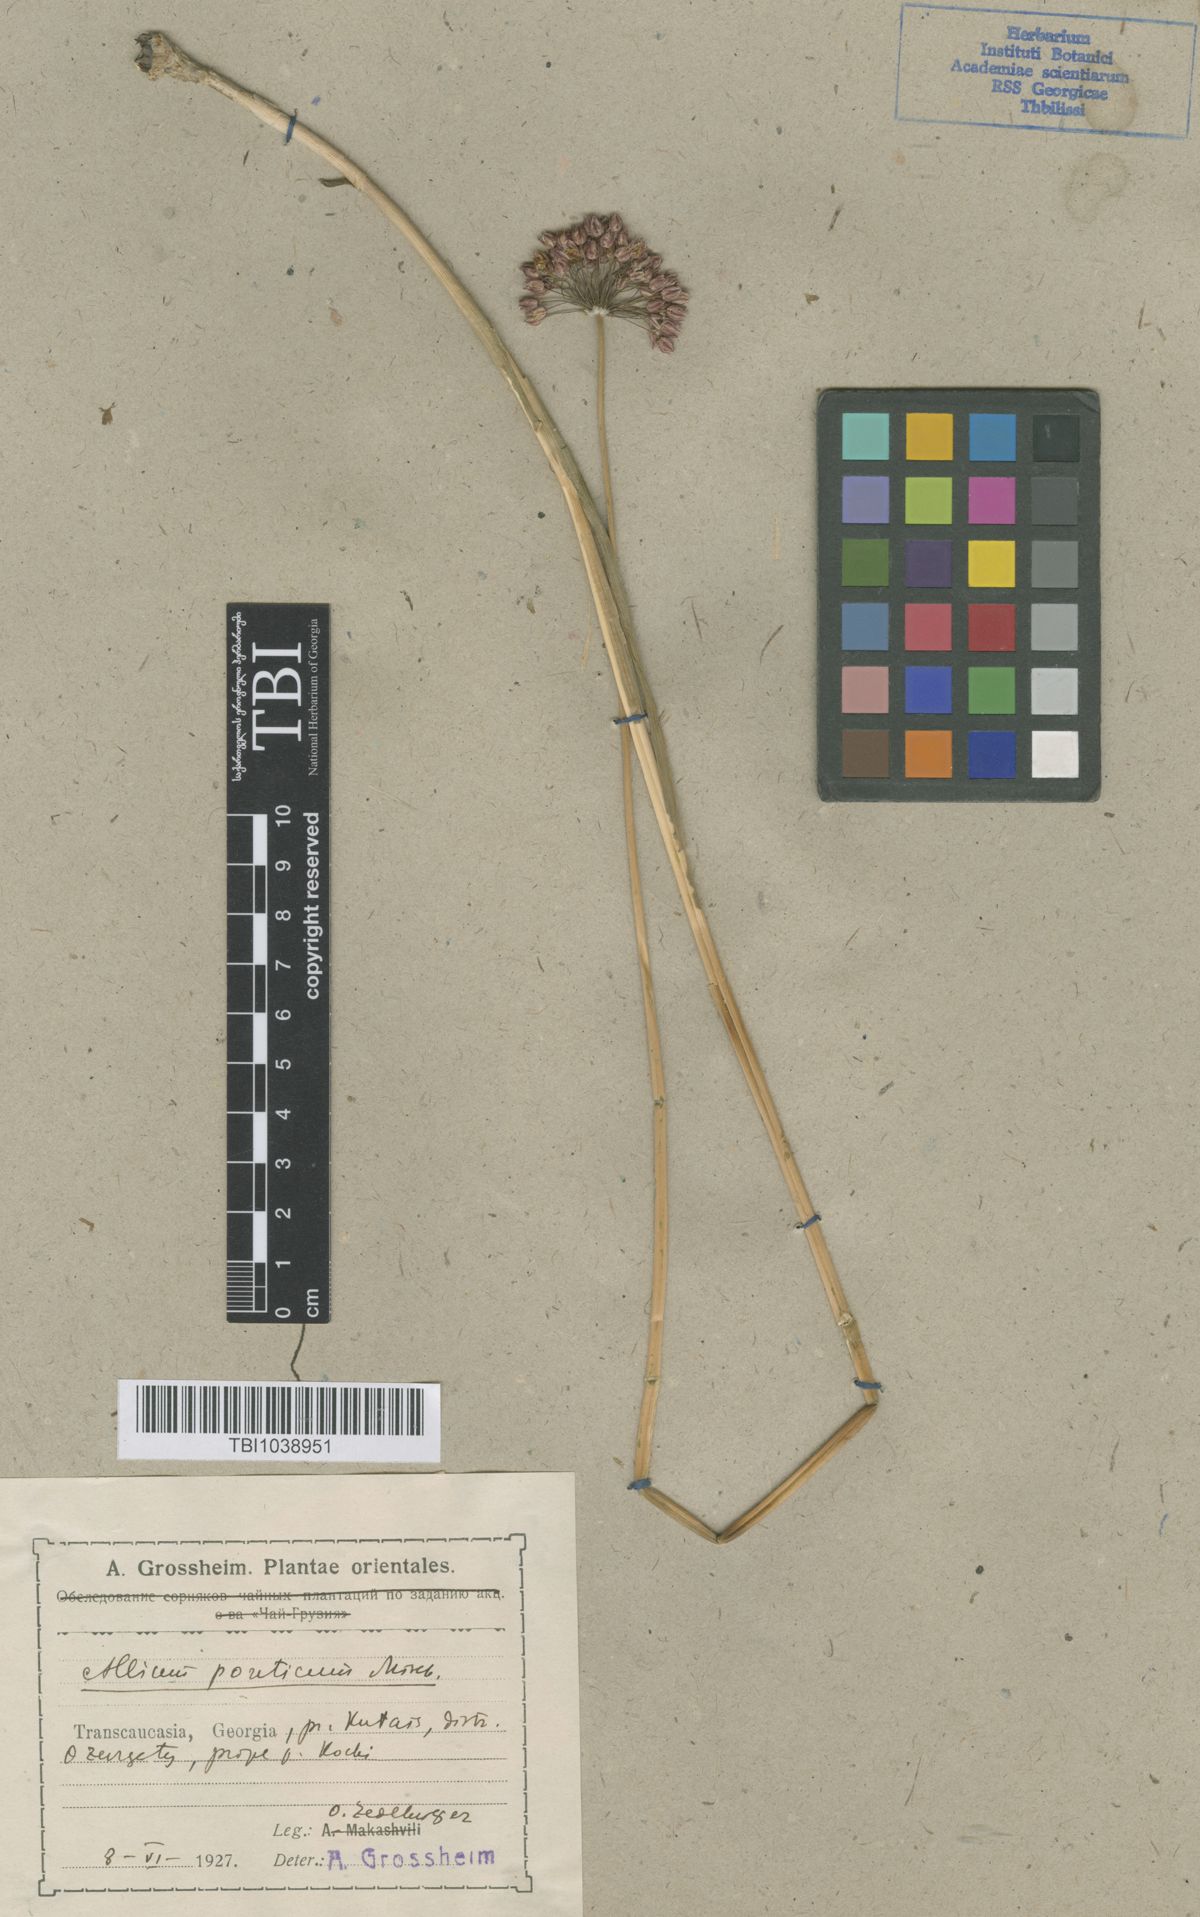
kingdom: Plantae
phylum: Tracheophyta
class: Liliopsida
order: Asparagales
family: Amaryllidaceae
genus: Allium
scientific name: Allium ponticum
